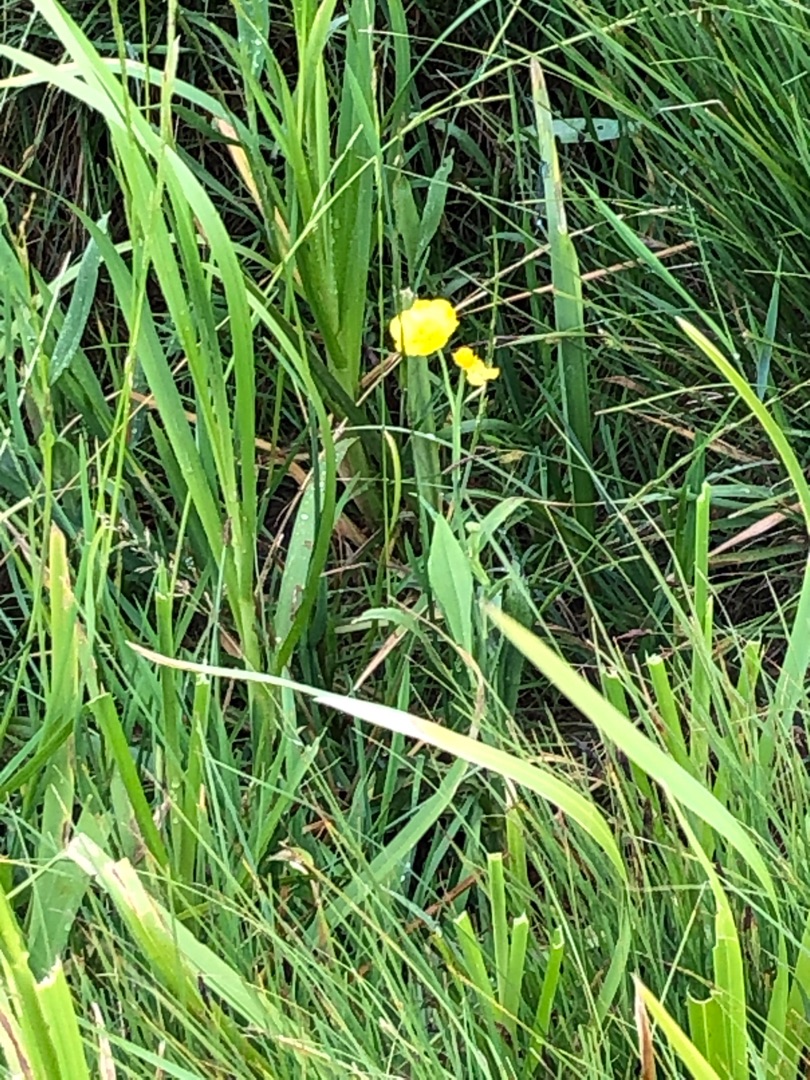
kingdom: Plantae
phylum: Tracheophyta
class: Magnoliopsida
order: Ranunculales
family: Ranunculaceae
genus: Ranunculus
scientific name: Ranunculus lingua
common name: Langbladet ranunkel
